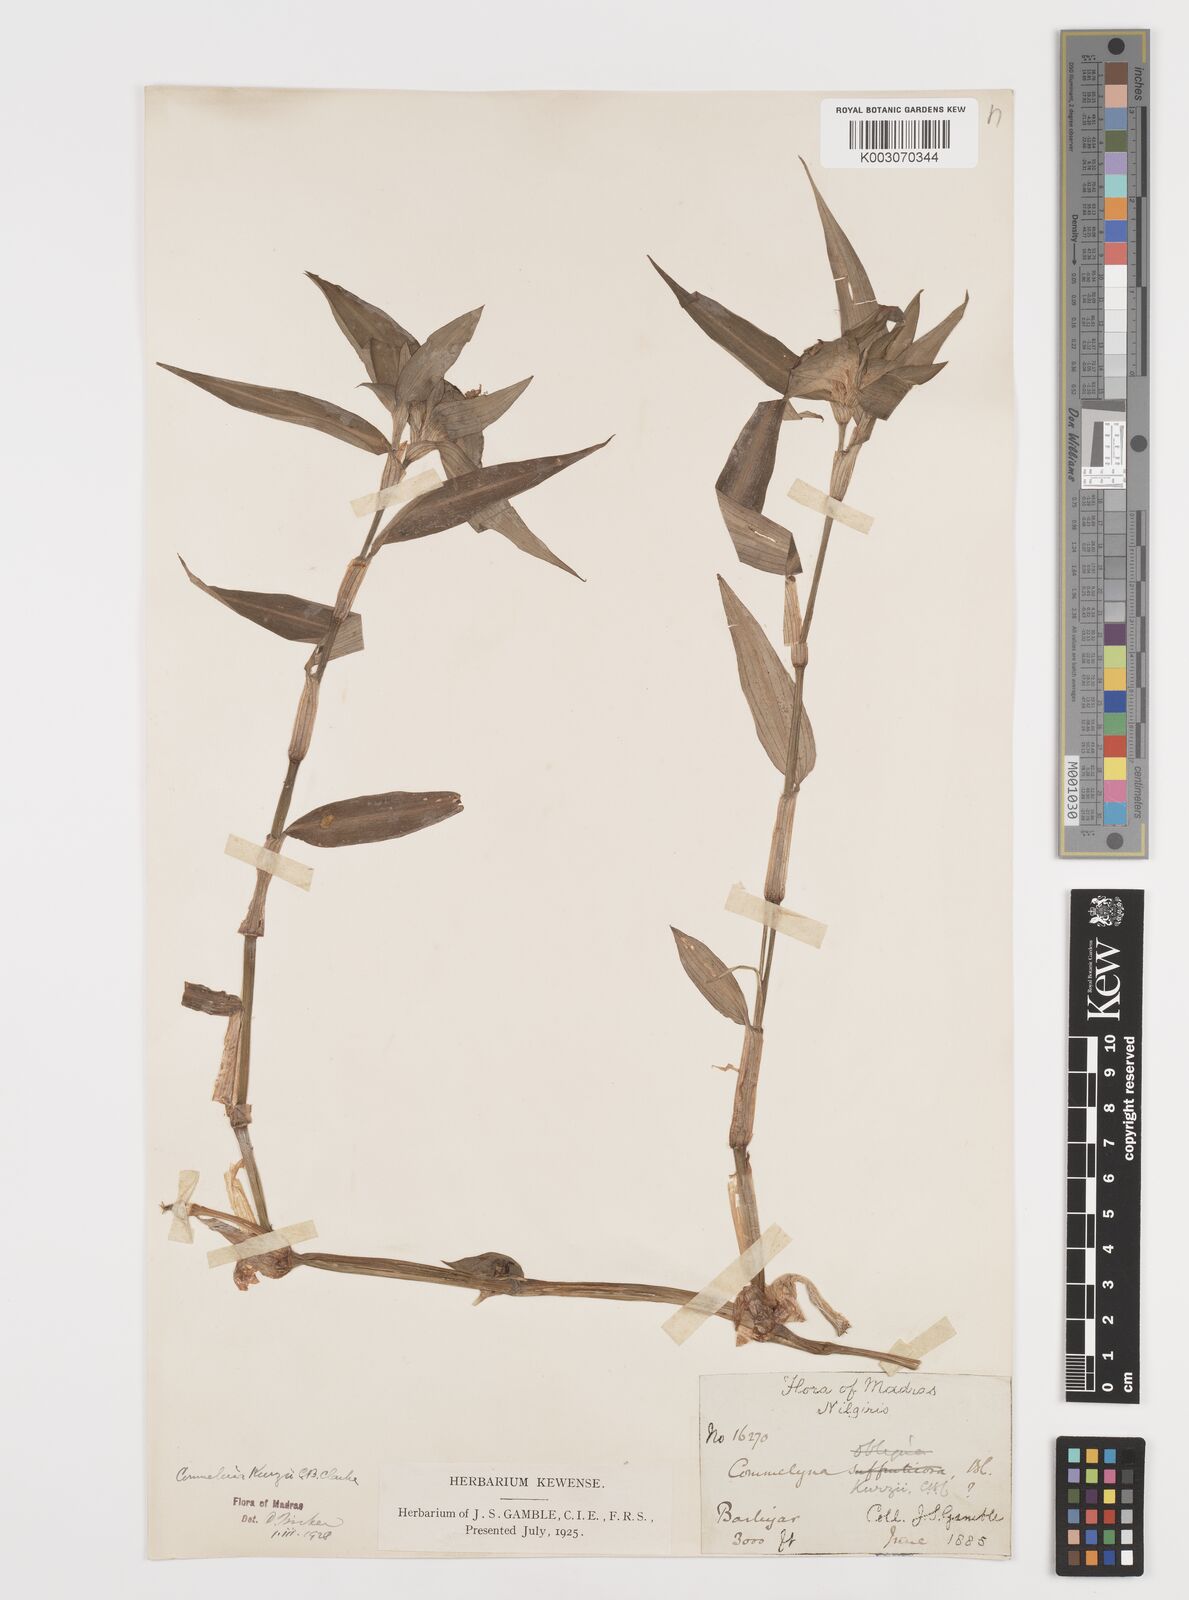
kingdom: Plantae
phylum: Tracheophyta
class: Liliopsida
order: Commelinales
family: Commelinaceae
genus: Commelina
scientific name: Commelina undulata
